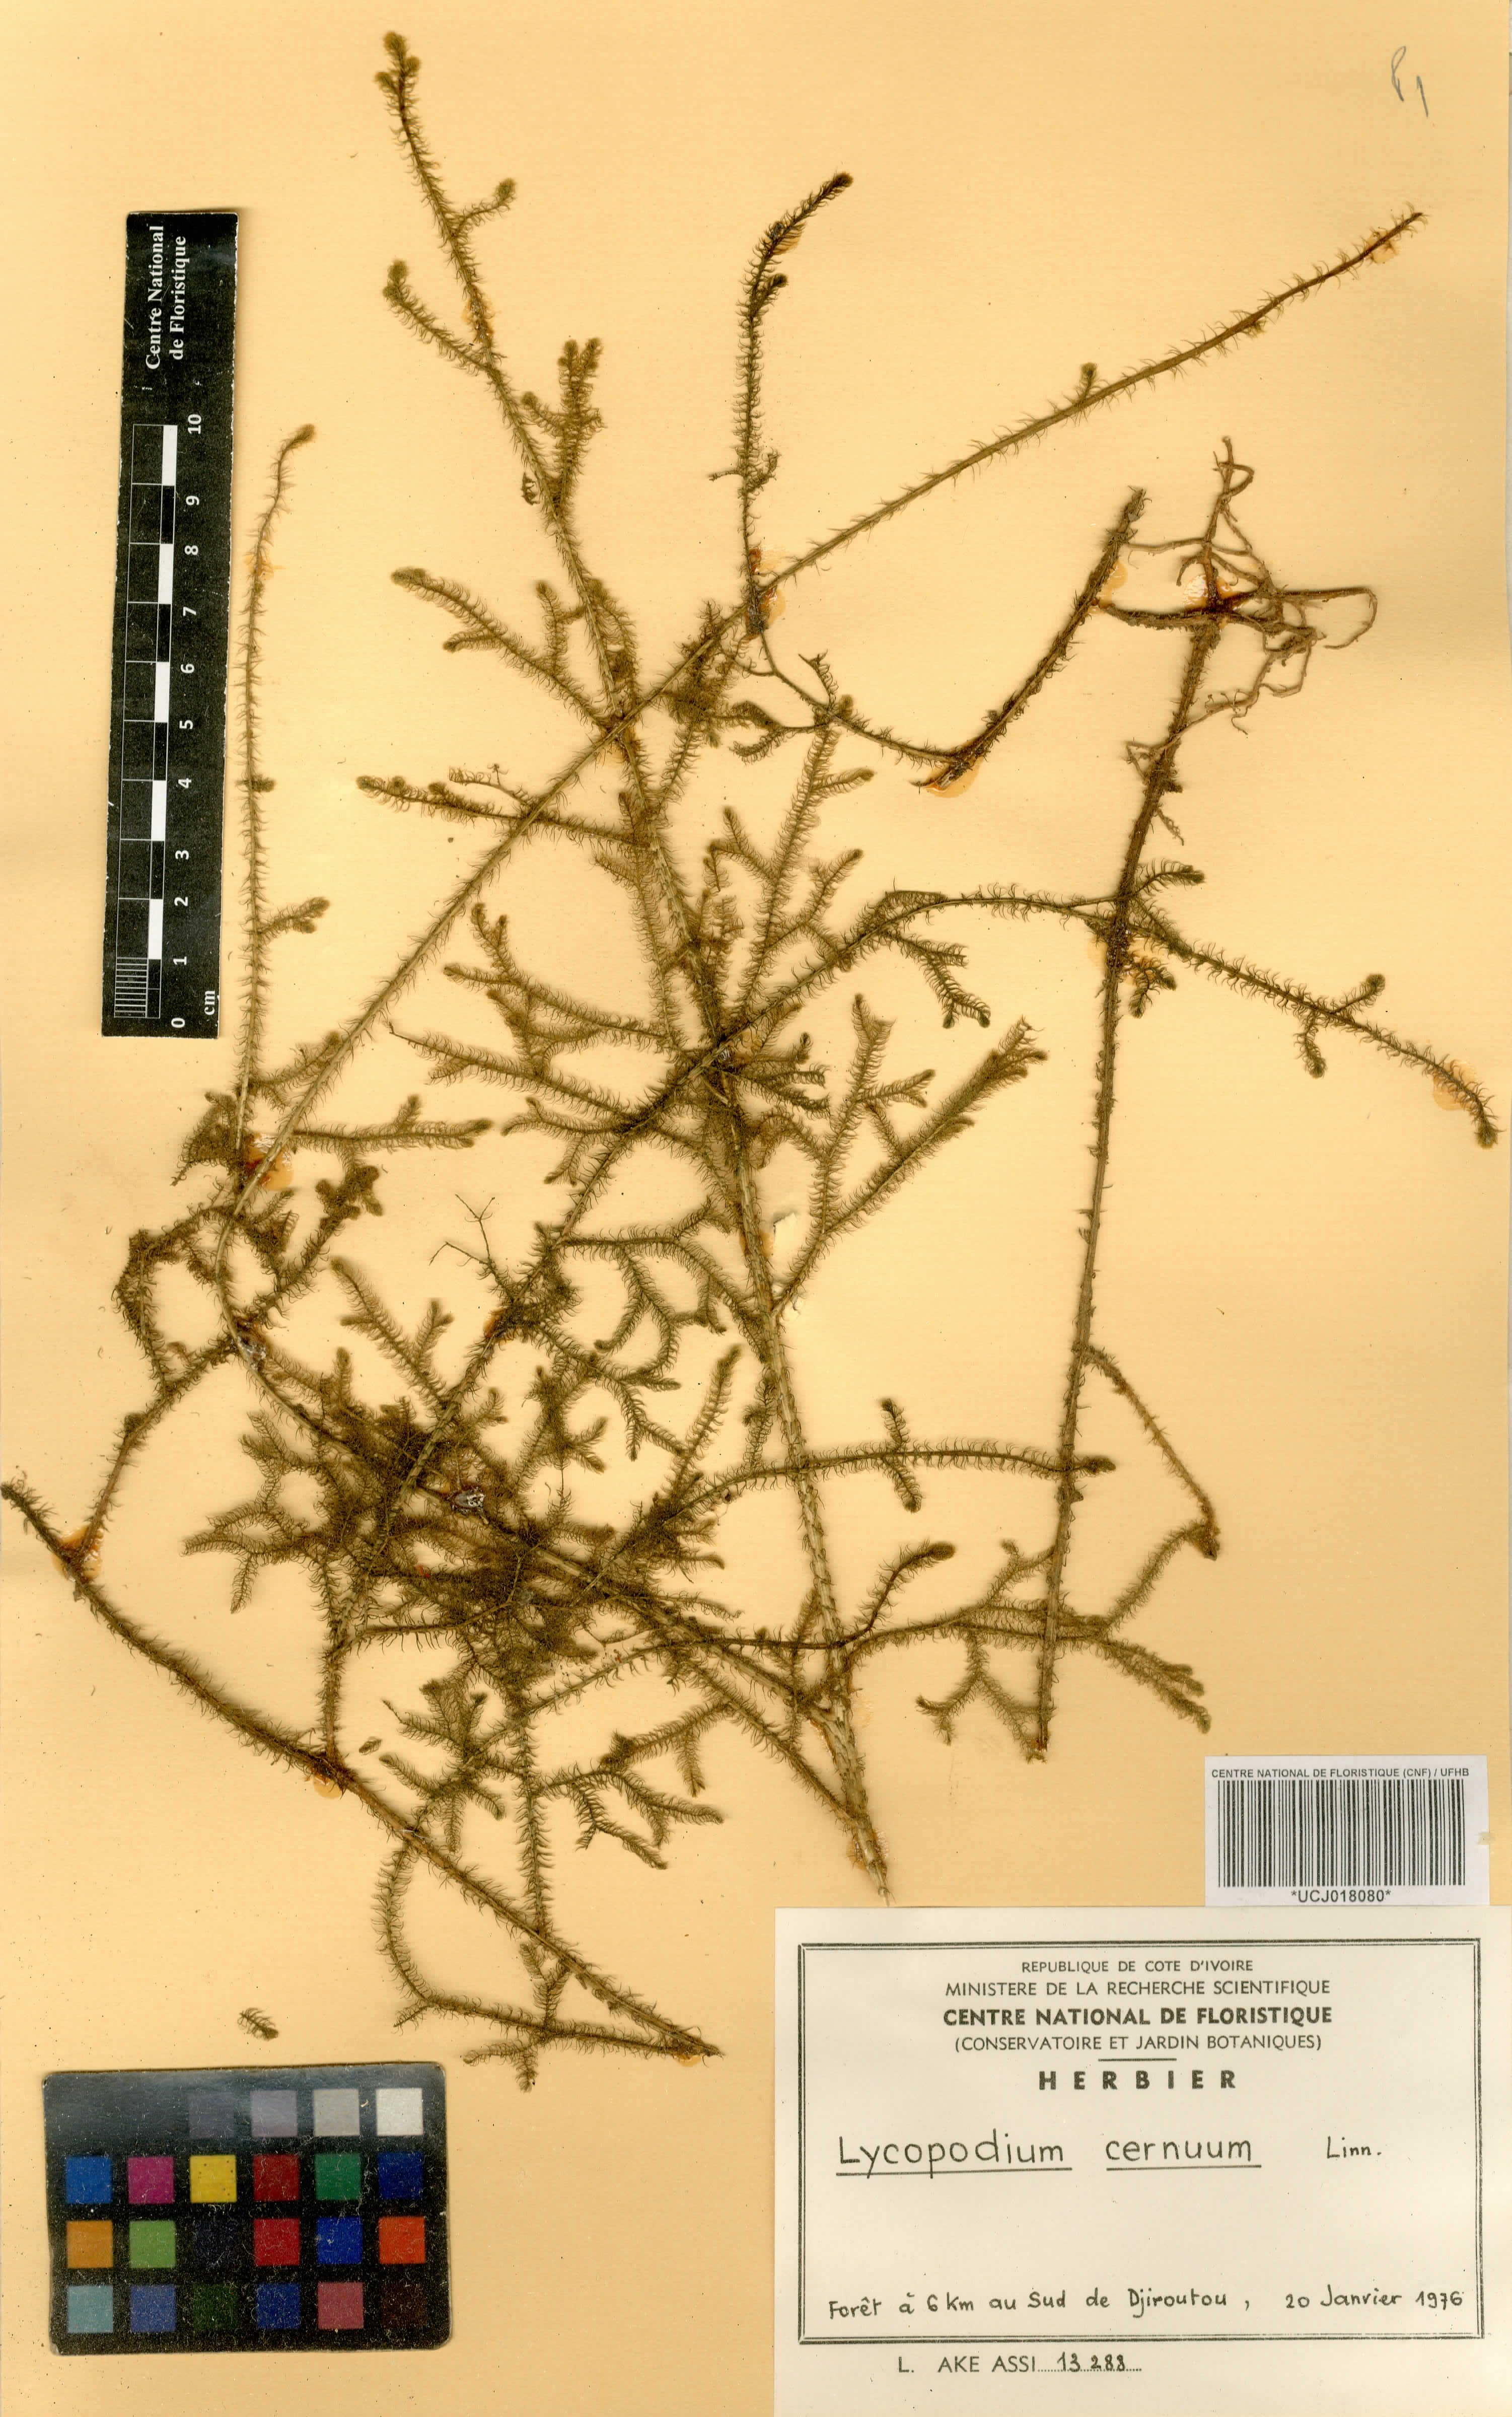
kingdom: Plantae
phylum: Tracheophyta
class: Lycopodiopsida
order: Lycopodiales
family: Lycopodiaceae
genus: Palhinhaea
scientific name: Palhinhaea cernua
